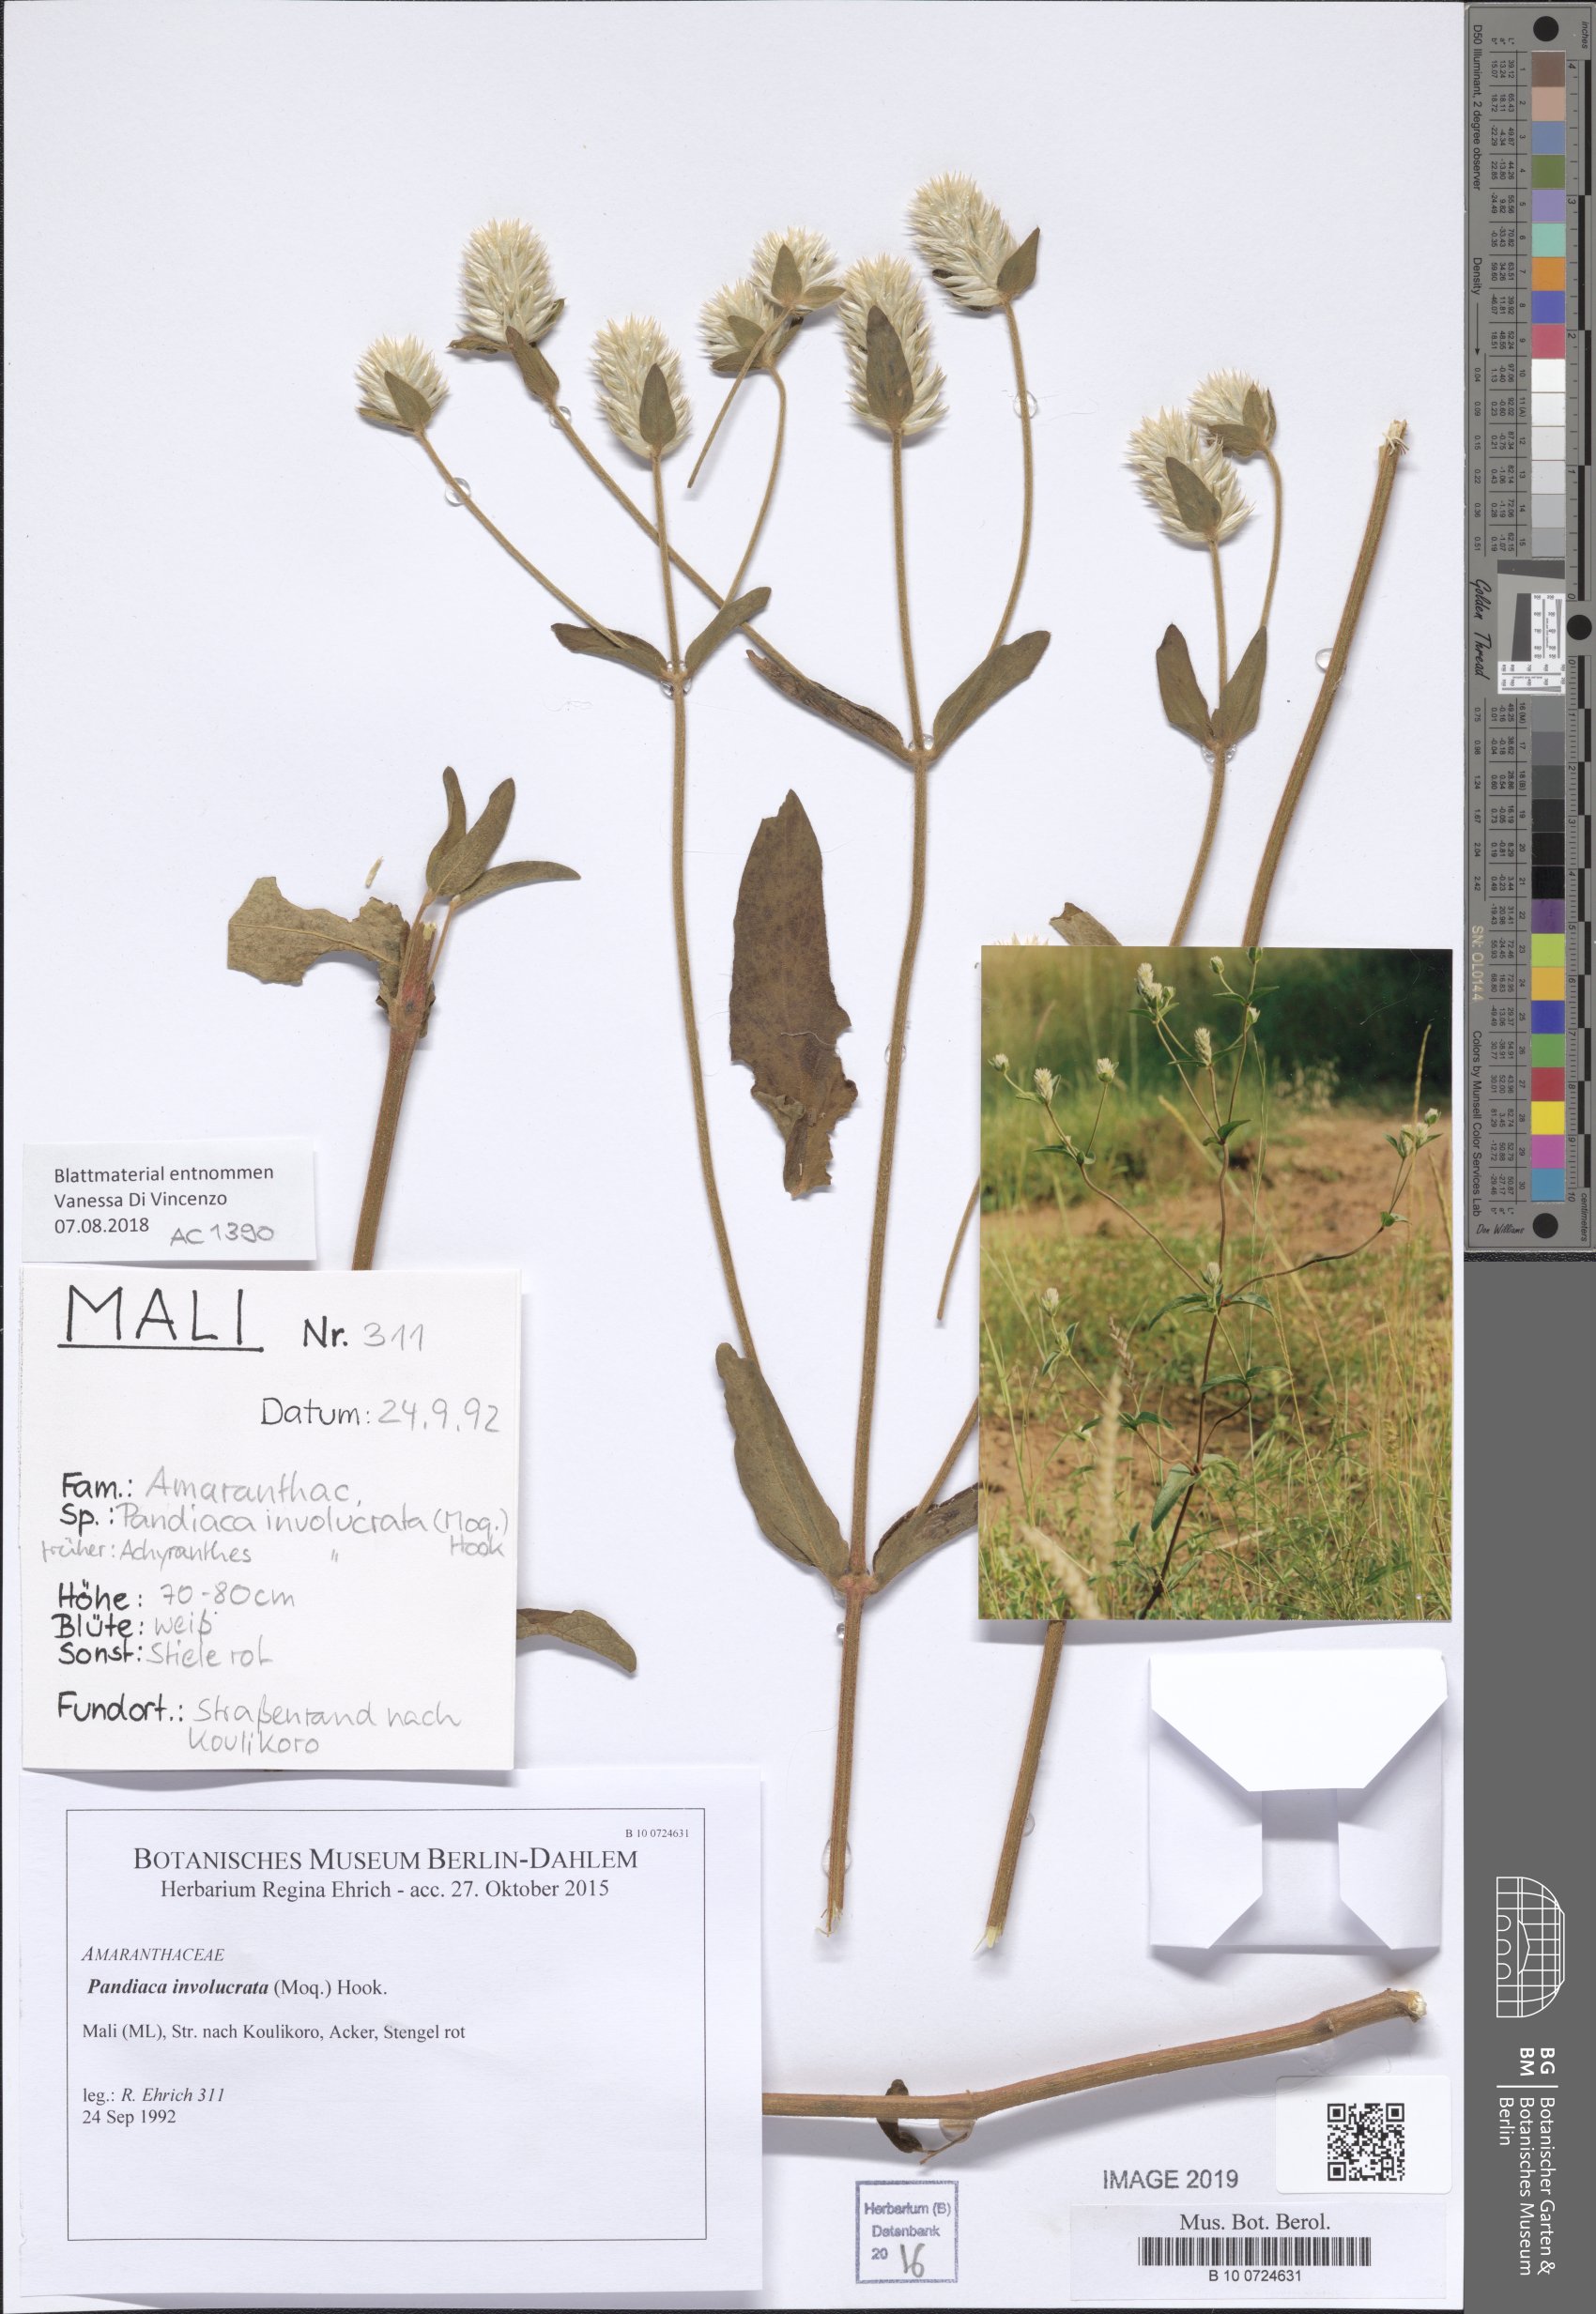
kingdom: Plantae
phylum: Tracheophyta
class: Magnoliopsida
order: Caryophyllales
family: Amaranthaceae
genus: Pandiaka
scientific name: Pandiaka involucrata
